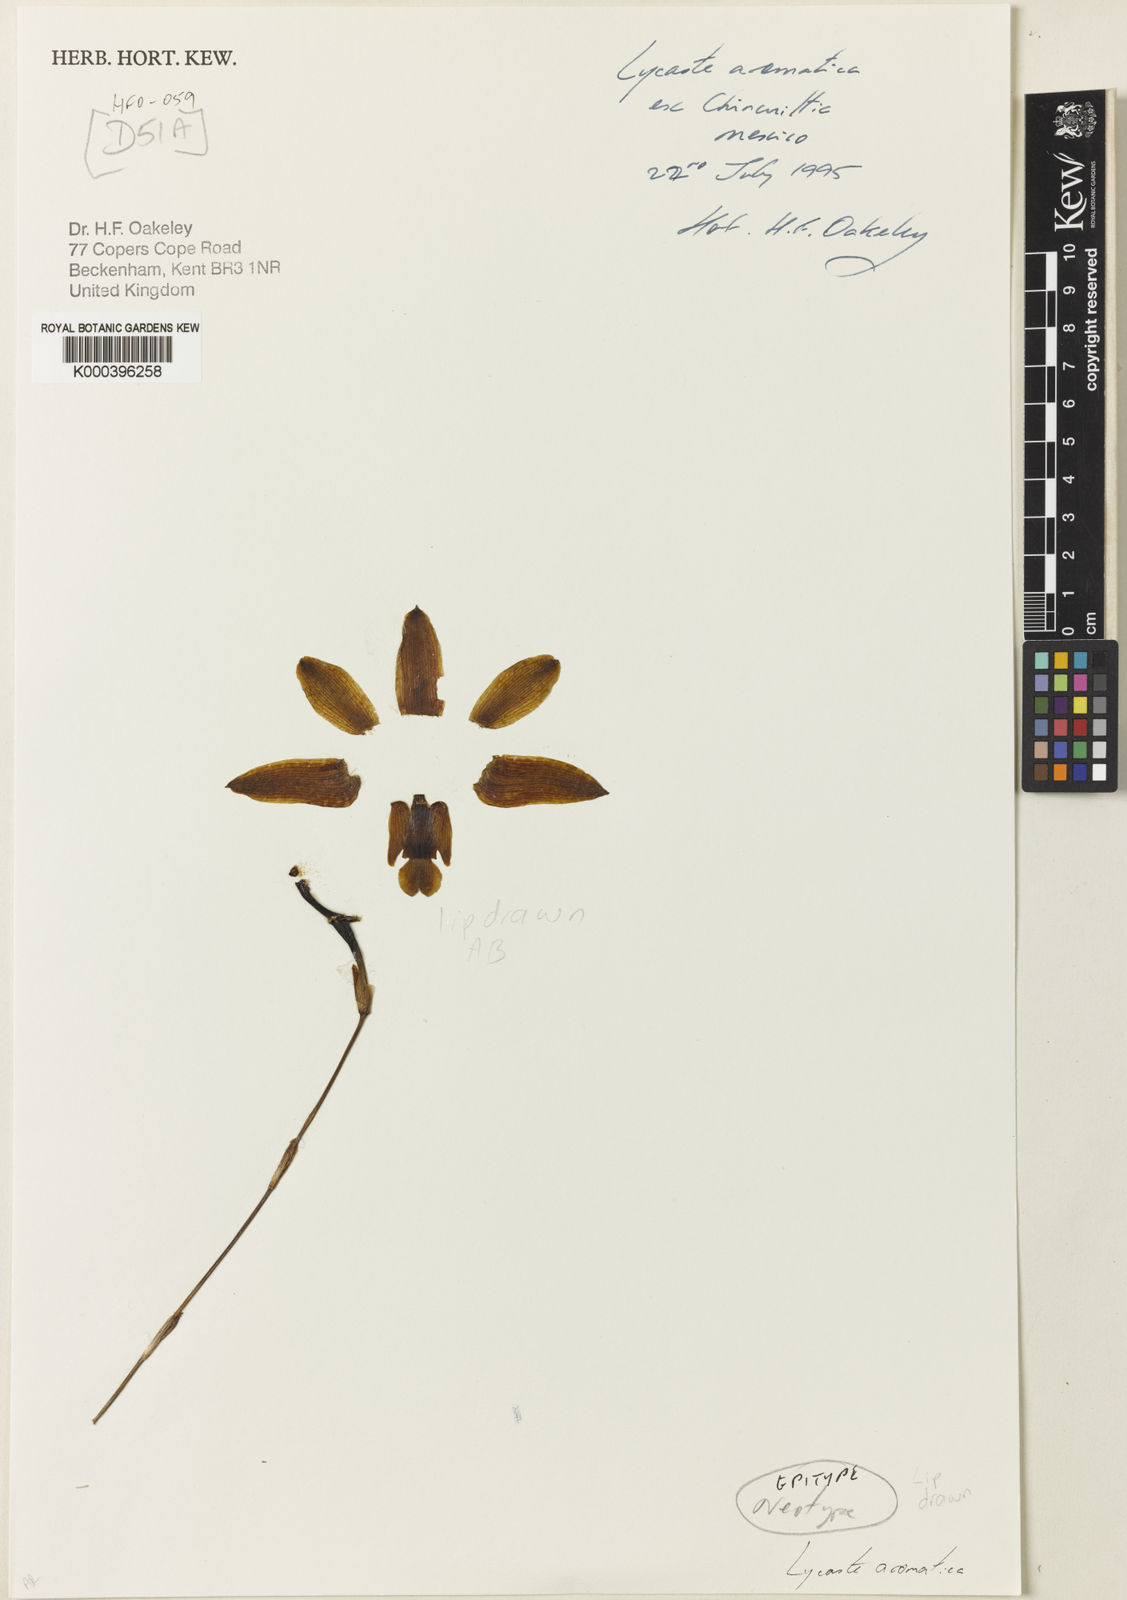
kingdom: Plantae
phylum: Tracheophyta
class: Liliopsida
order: Asparagales
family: Orchidaceae
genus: Lycaste
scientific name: Lycaste aromatica
